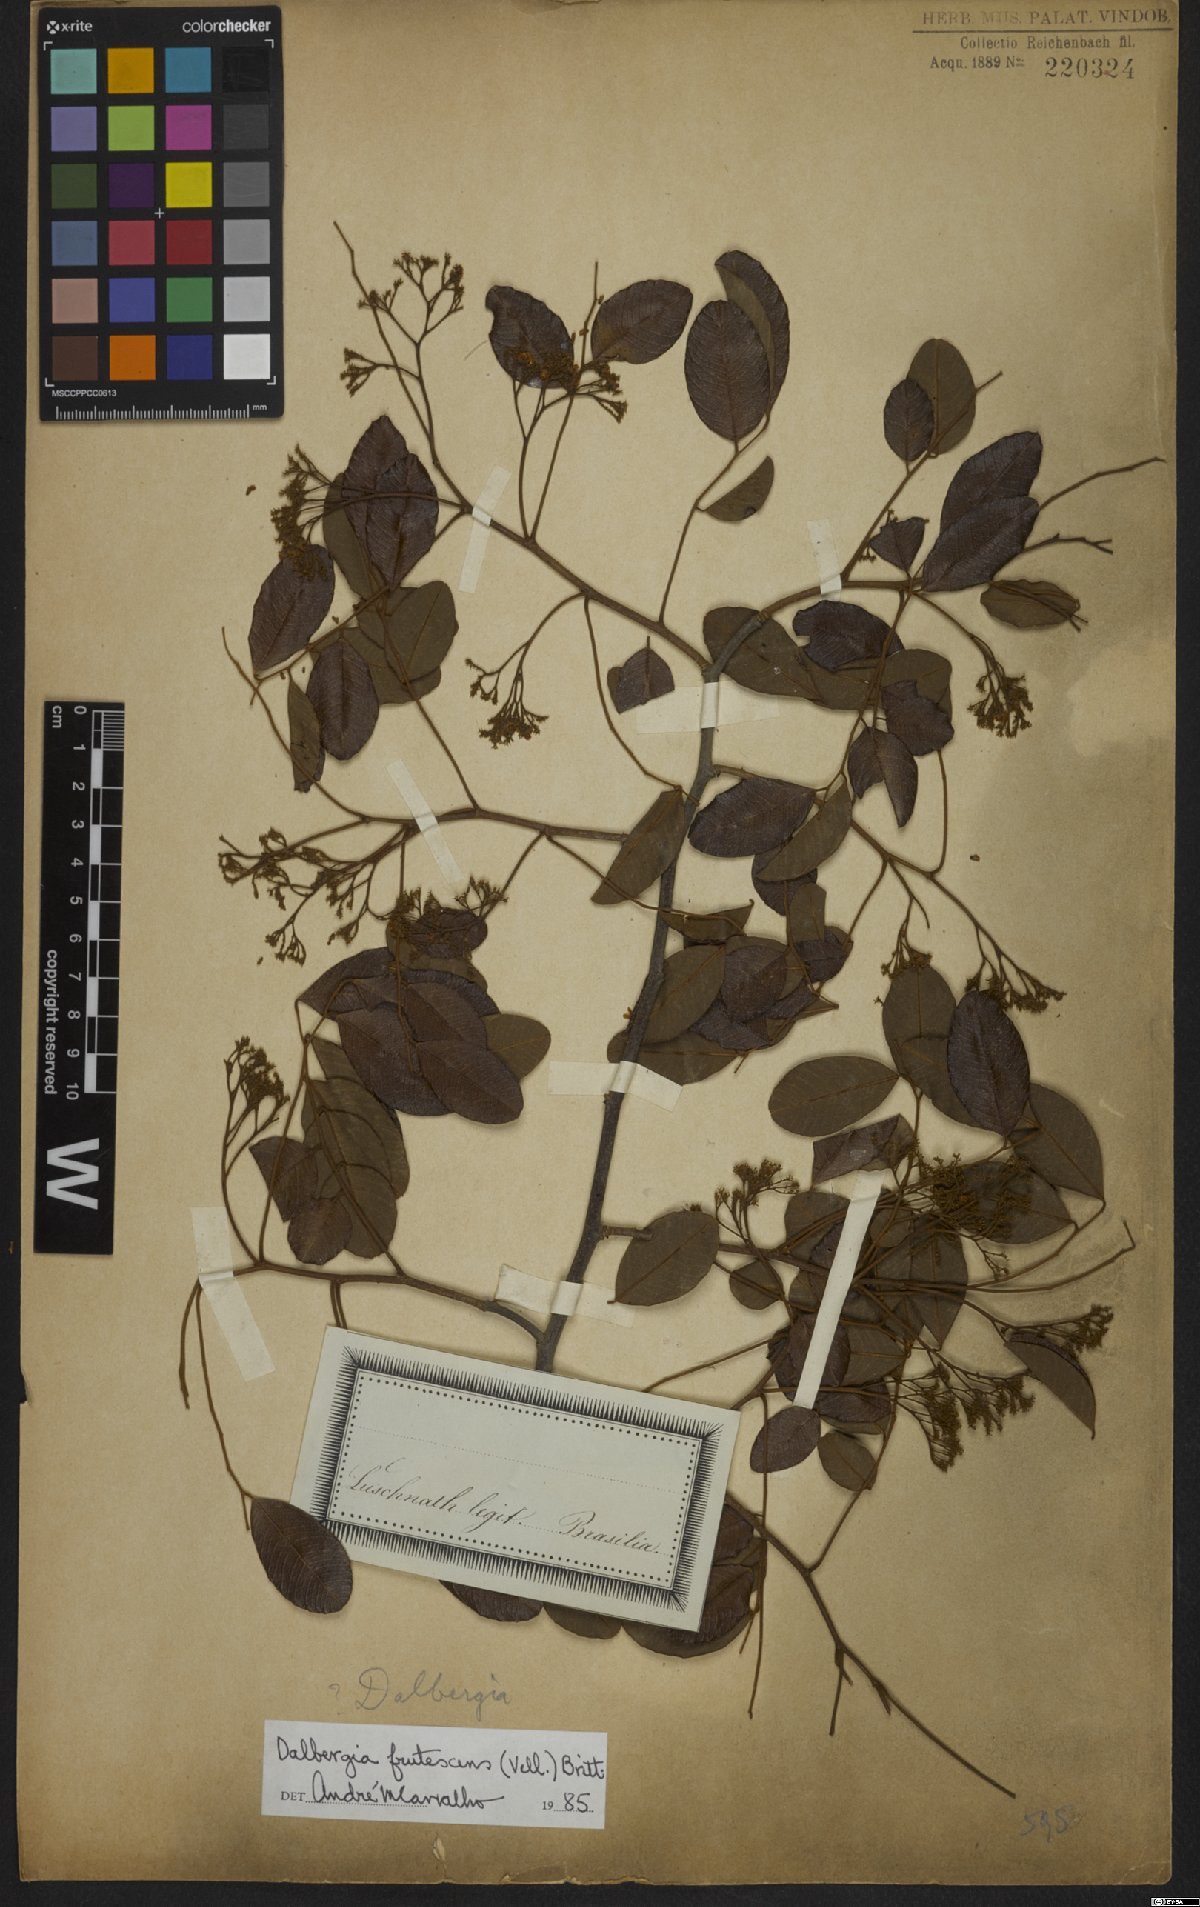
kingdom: Plantae
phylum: Tracheophyta
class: Magnoliopsida
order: Fabales
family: Fabaceae
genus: Dalbergia
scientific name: Dalbergia frutescens
